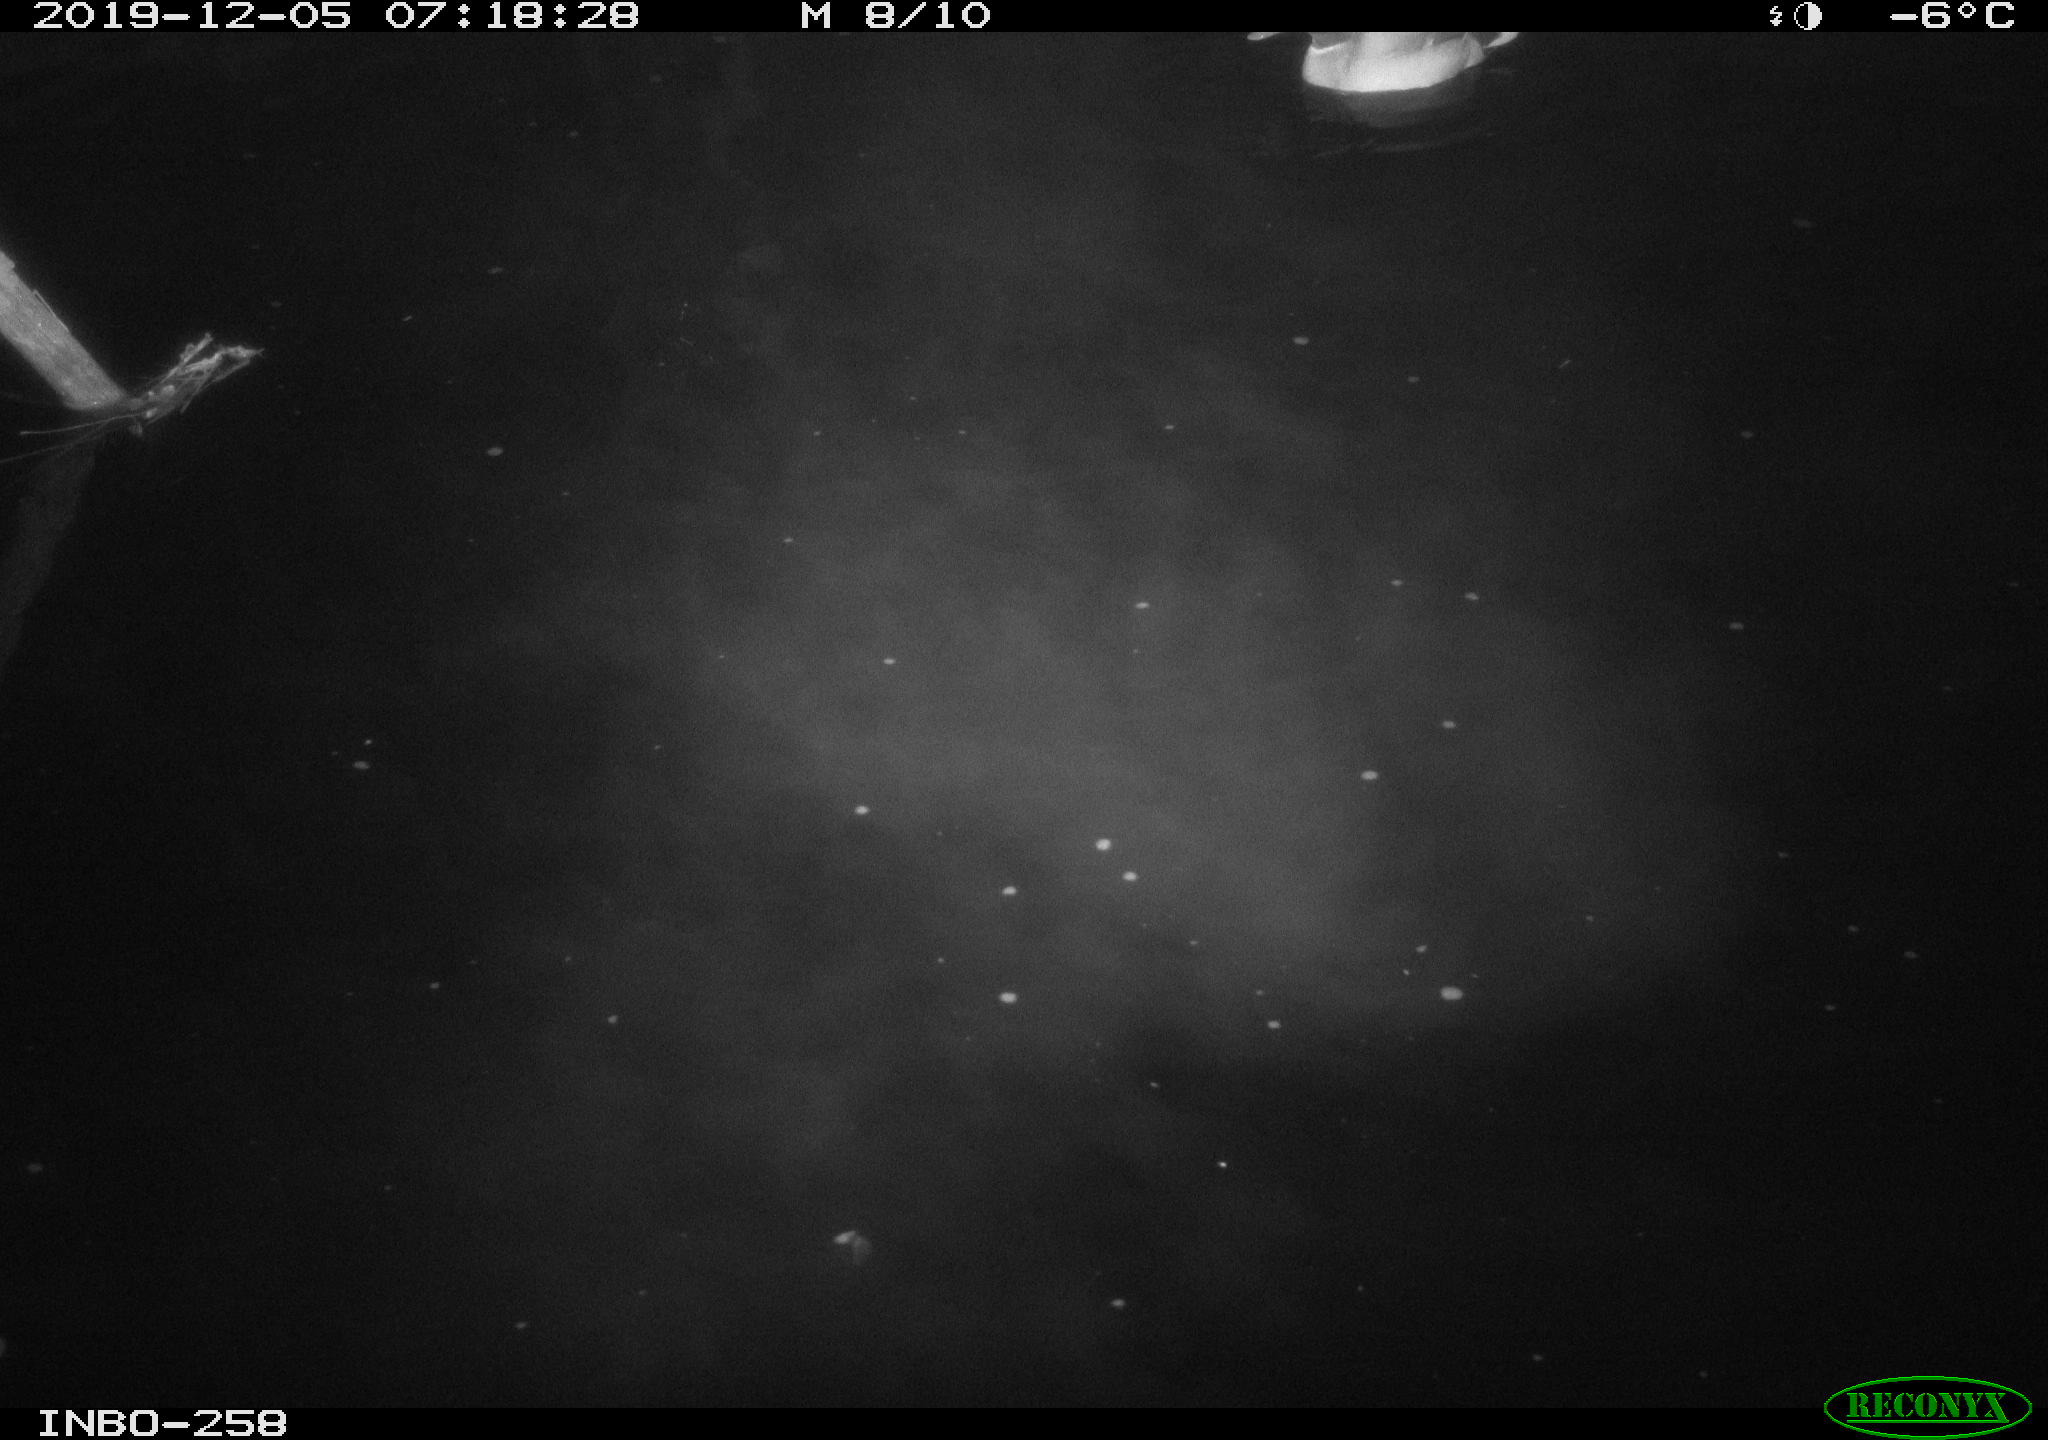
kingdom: Animalia
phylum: Chordata
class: Aves
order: Anseriformes
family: Anatidae
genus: Anas
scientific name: Anas platyrhynchos
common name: Mallard
